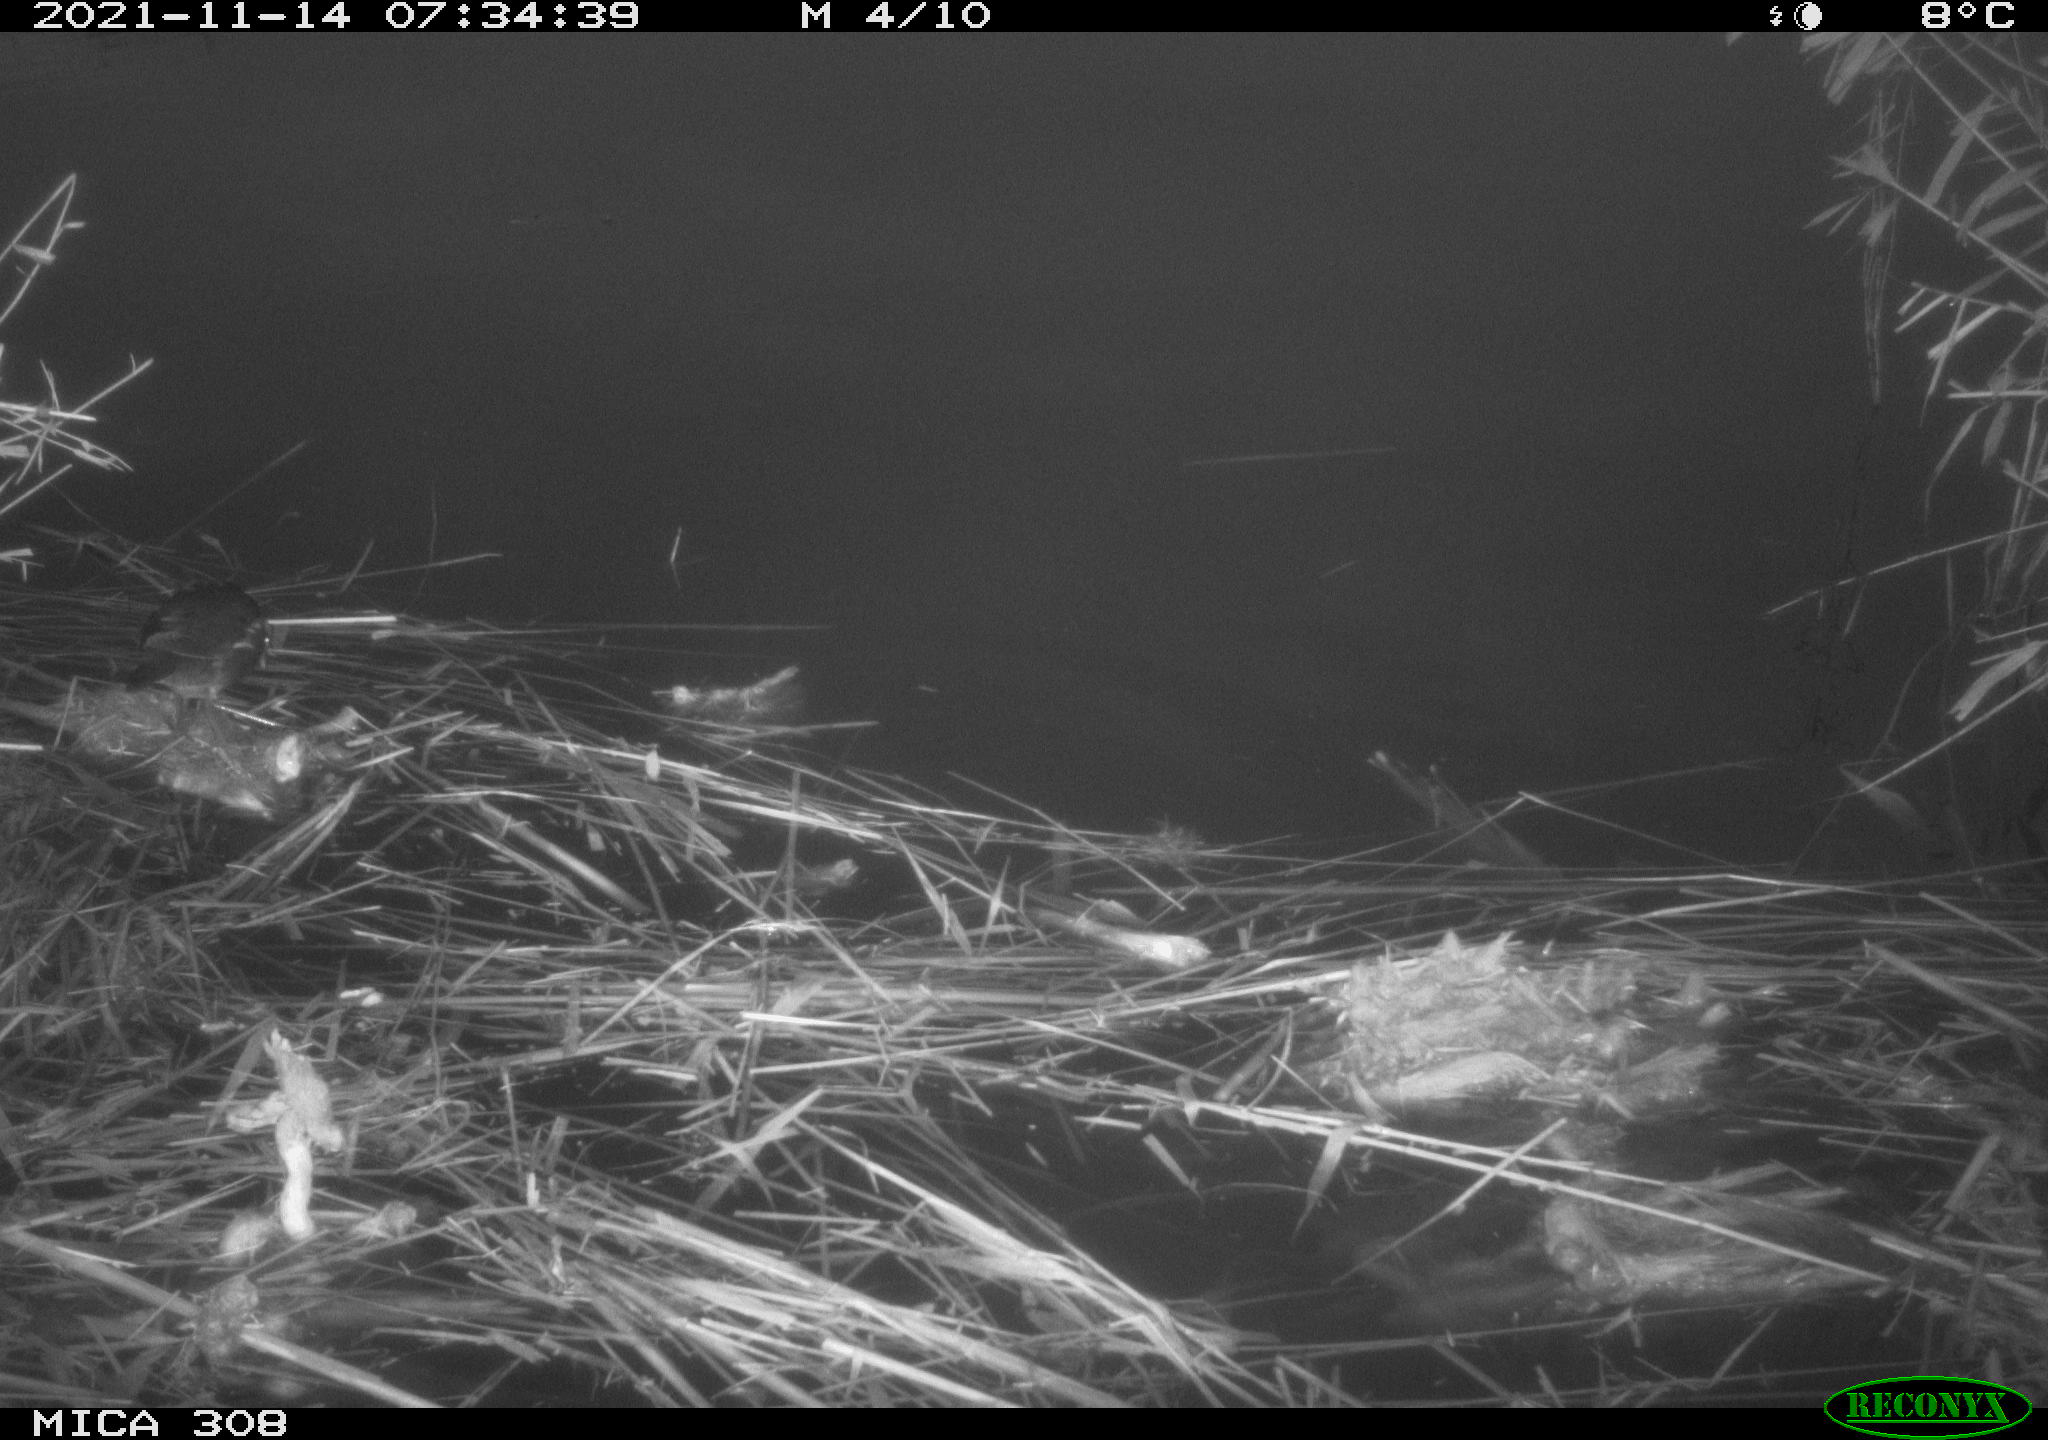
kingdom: Animalia
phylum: Chordata
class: Aves
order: Gruiformes
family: Rallidae
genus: Gallinula
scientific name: Gallinula chloropus
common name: Common moorhen
